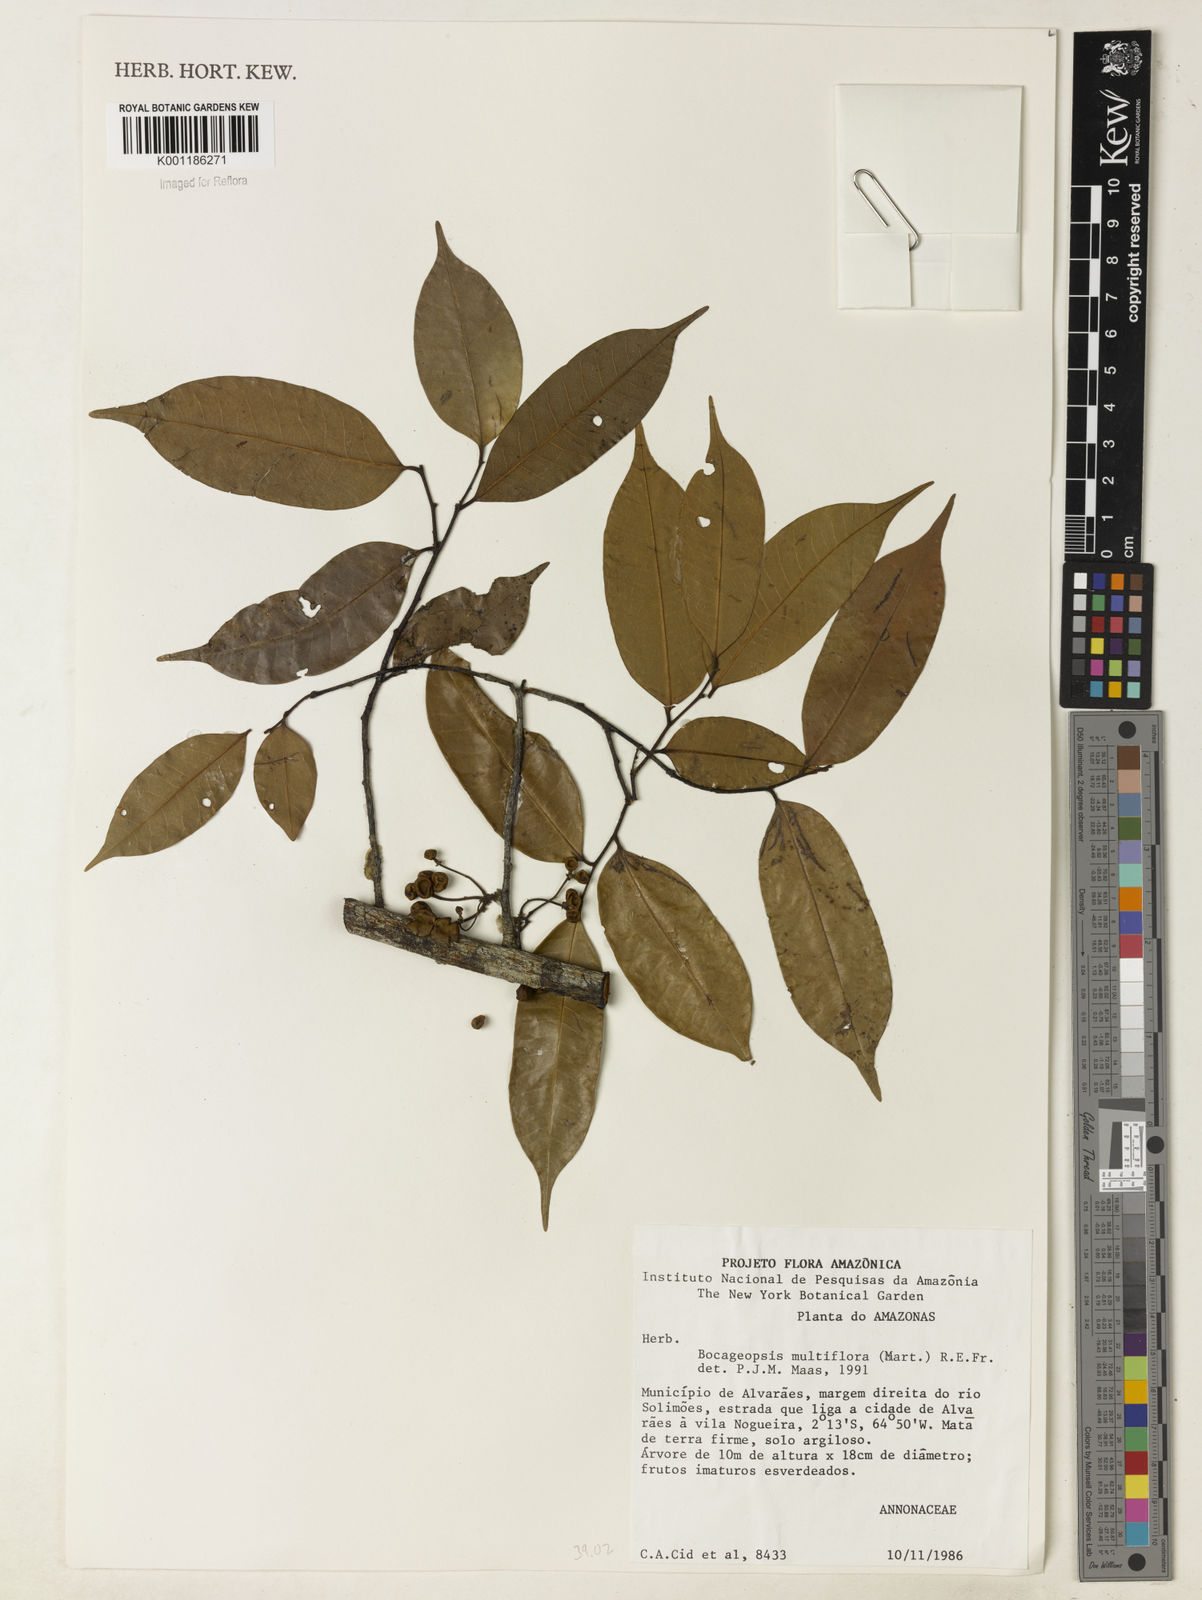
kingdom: Plantae
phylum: Tracheophyta
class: Magnoliopsida
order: Magnoliales
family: Annonaceae
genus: Bocageopsis
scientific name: Bocageopsis multiflora
